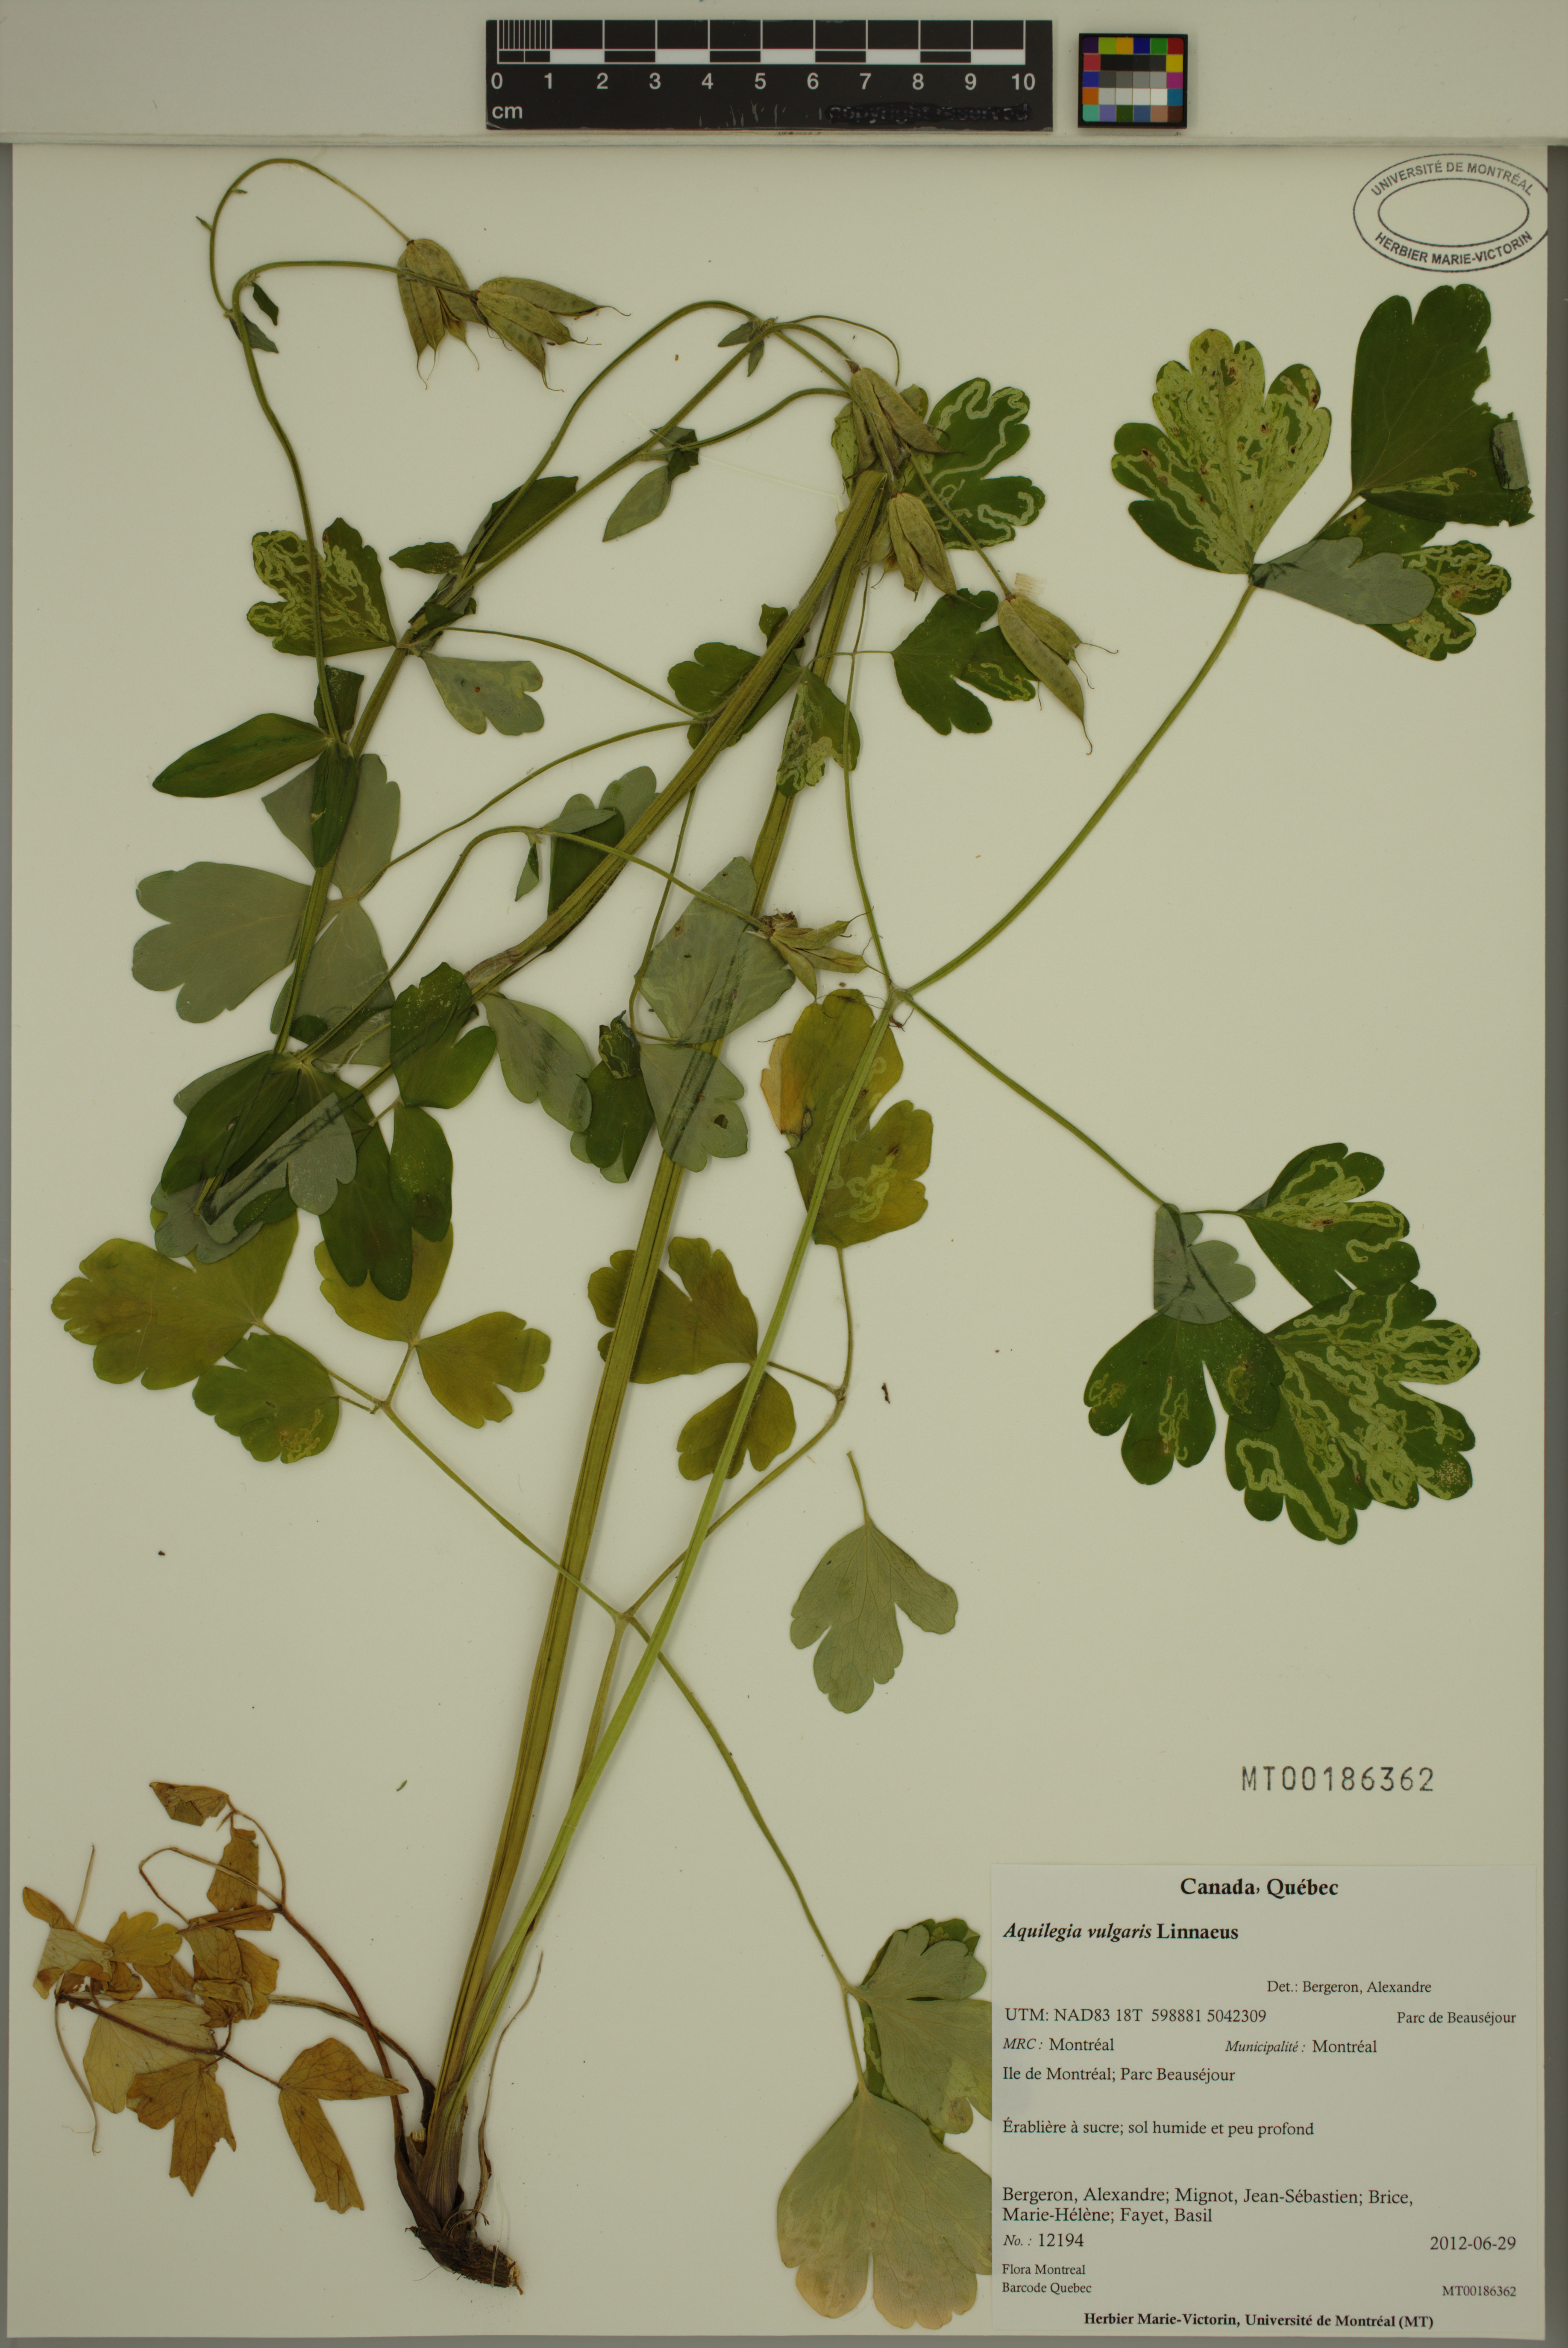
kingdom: Plantae
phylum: Tracheophyta
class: Magnoliopsida
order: Ranunculales
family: Ranunculaceae
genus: Aquilegia
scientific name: Aquilegia vulgaris
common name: Columbine
